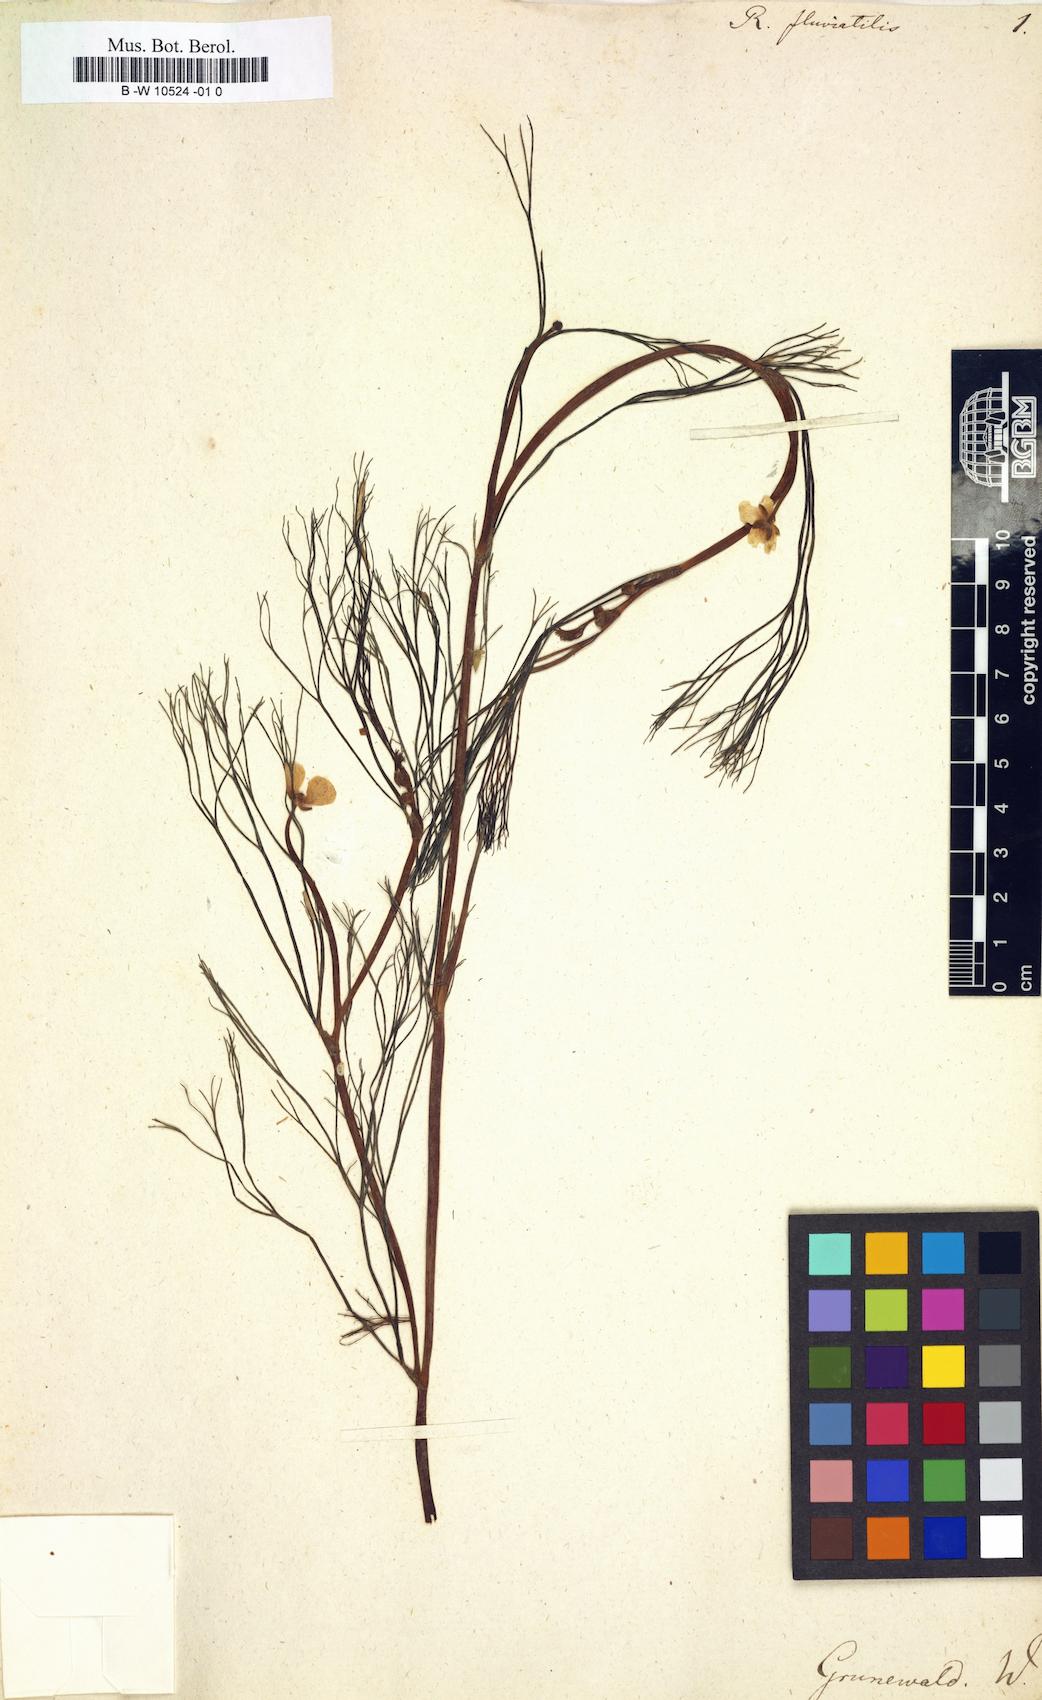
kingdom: Plantae
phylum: Tracheophyta
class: Magnoliopsida
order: Ranunculales
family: Ranunculaceae
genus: Ranunculus
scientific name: Ranunculus
